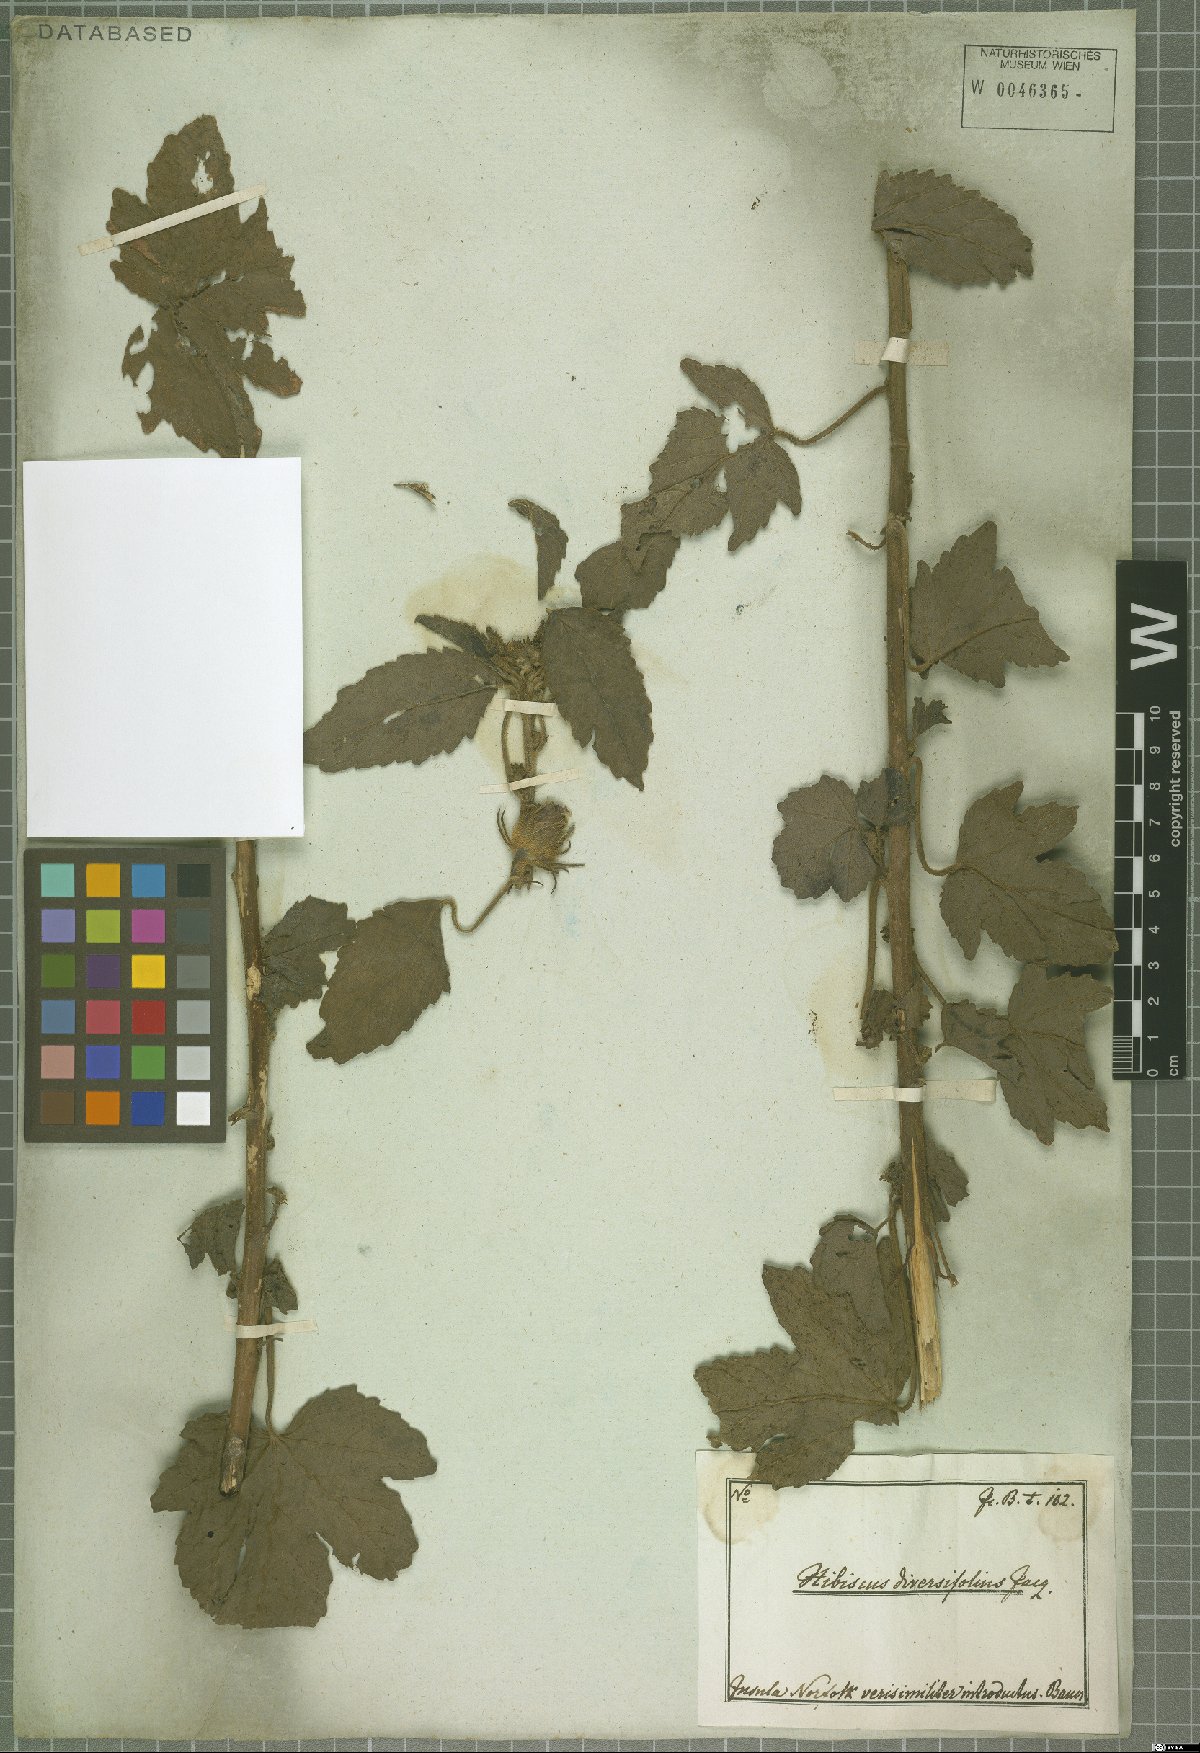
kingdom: Plantae
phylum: Tracheophyta
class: Magnoliopsida
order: Malvales
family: Malvaceae
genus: Hibiscus
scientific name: Hibiscus diversifolius
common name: Cape hibiscus
